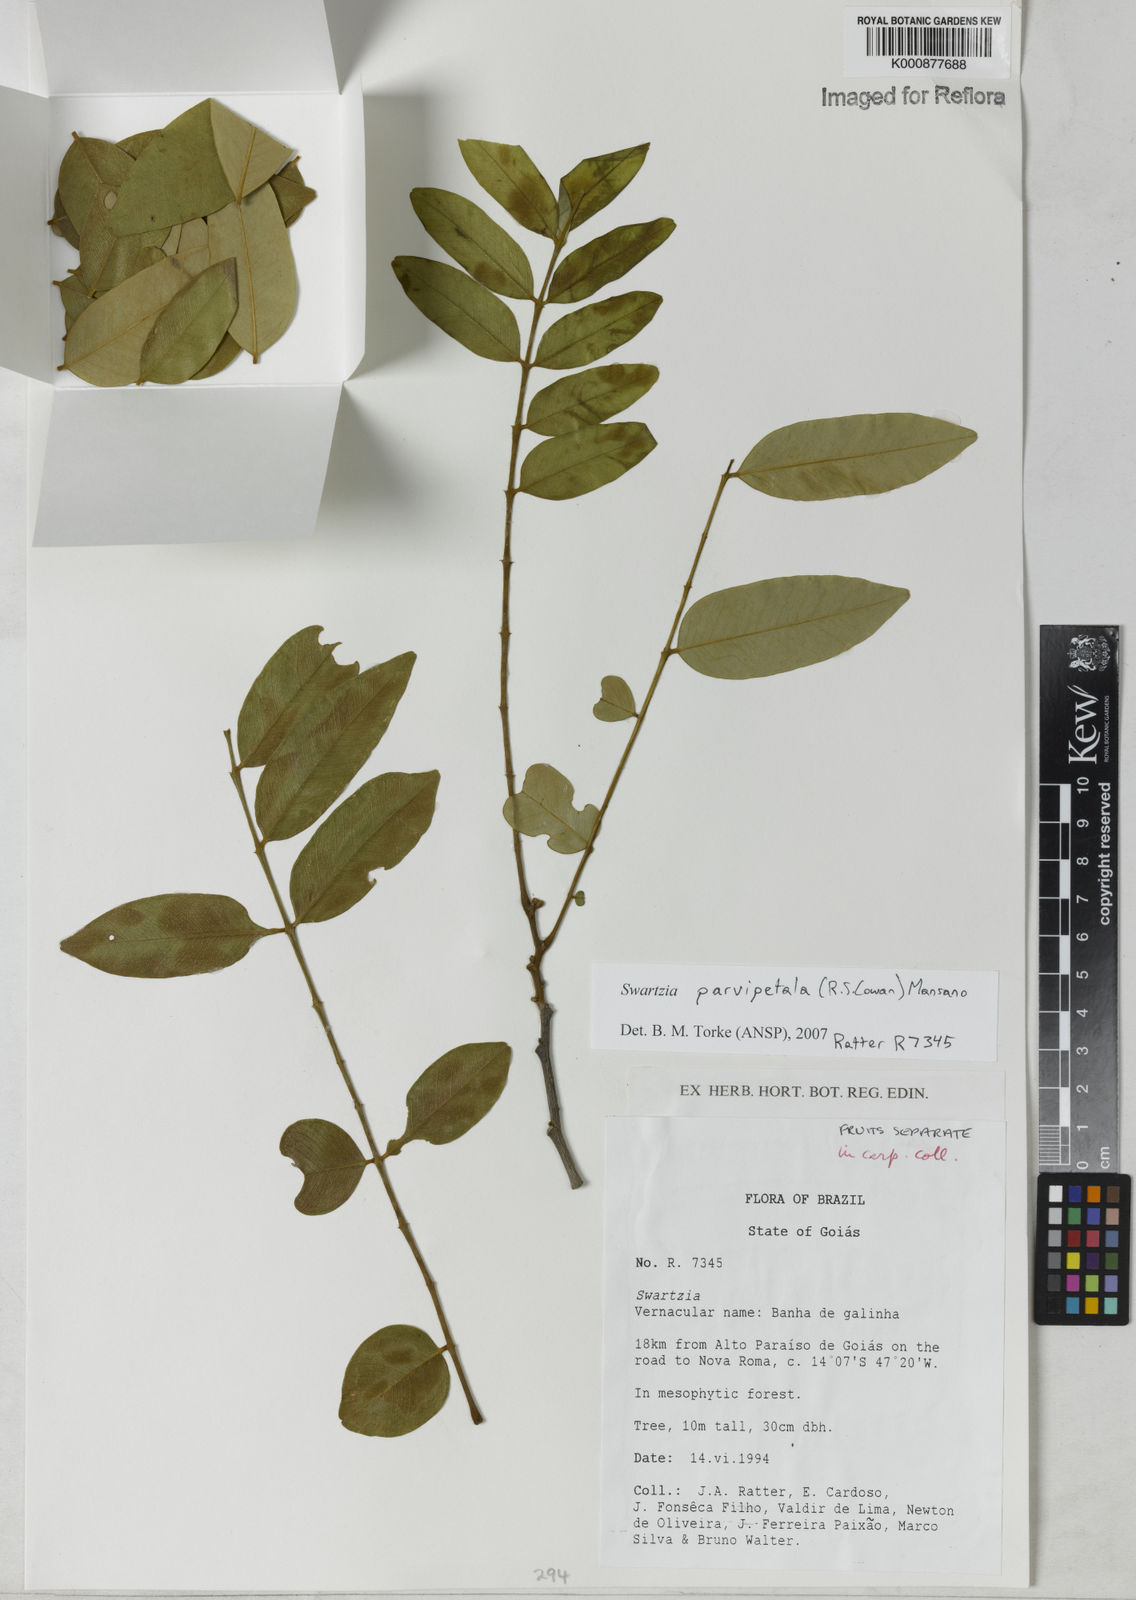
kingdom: Plantae
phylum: Tracheophyta
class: Magnoliopsida
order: Fabales
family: Fabaceae
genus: Swartzia
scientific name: Swartzia parvipetala
